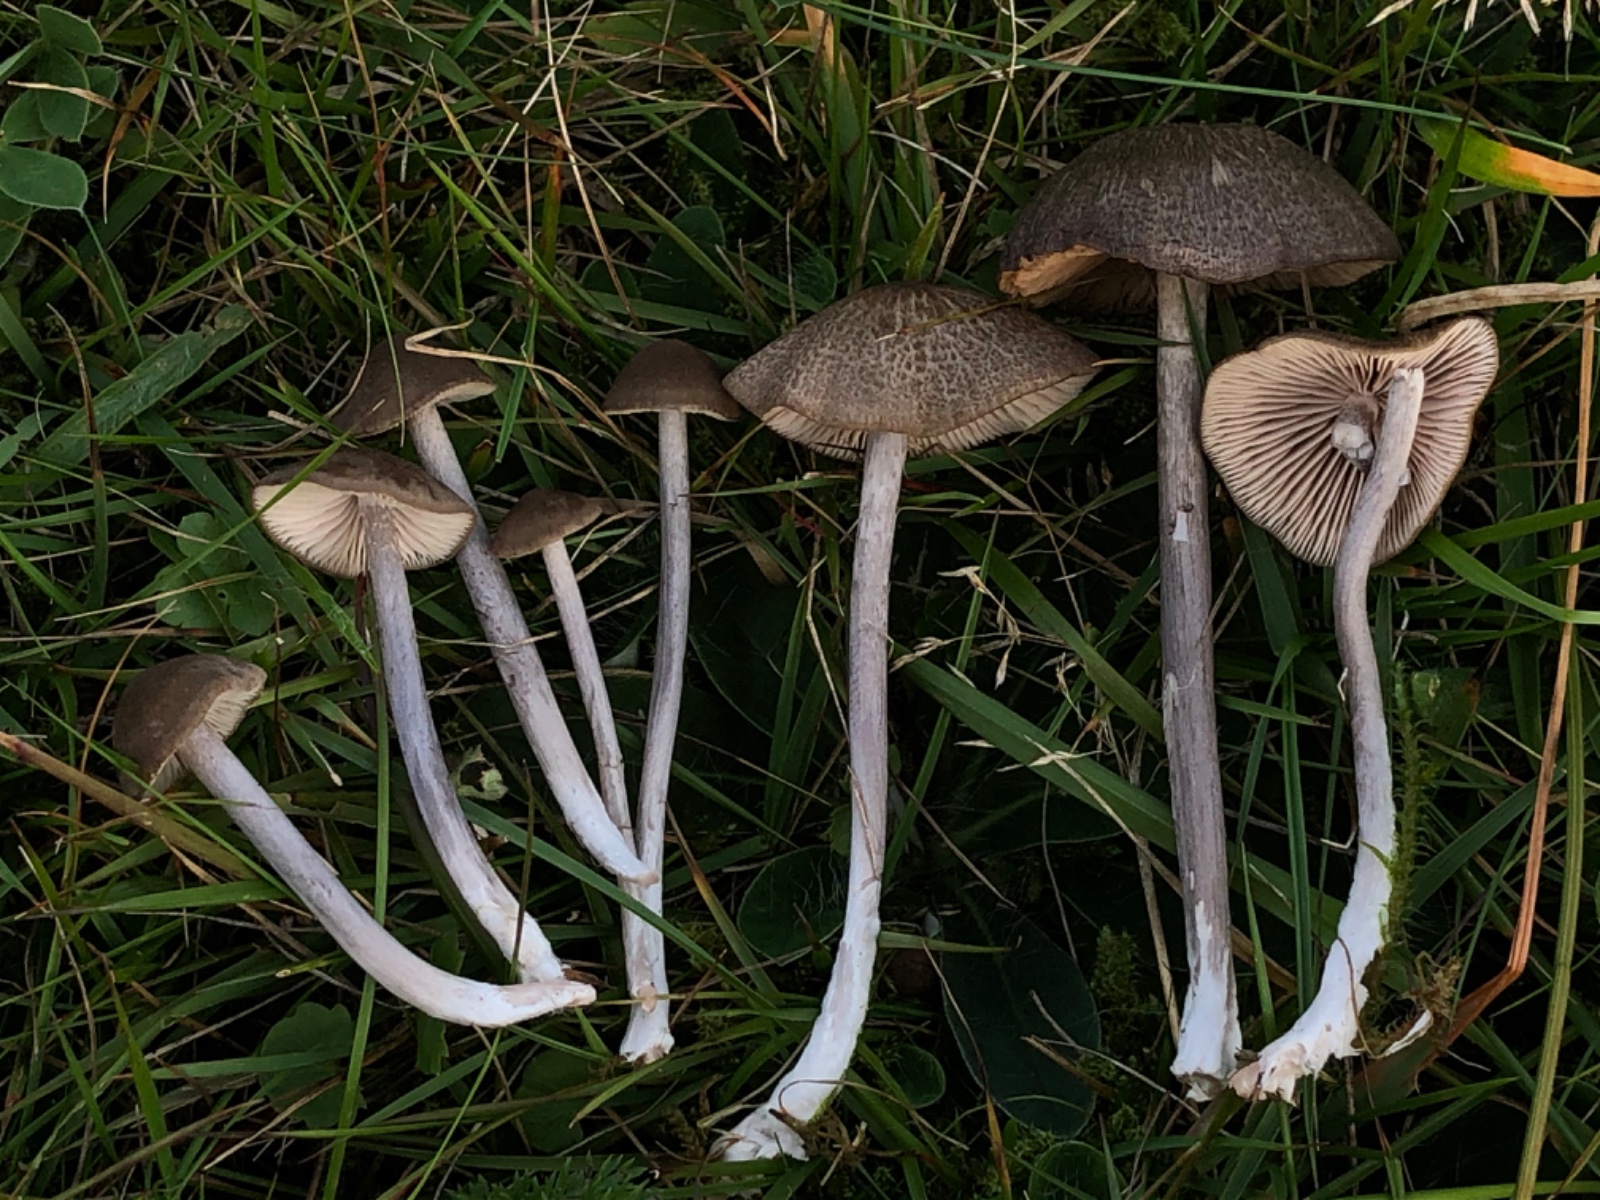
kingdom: Fungi
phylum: Basidiomycota
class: Agaricomycetes
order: Agaricales
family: Entolomataceae
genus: Entoloma
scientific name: Entoloma griseocyaneum
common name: gråblå rødblad
